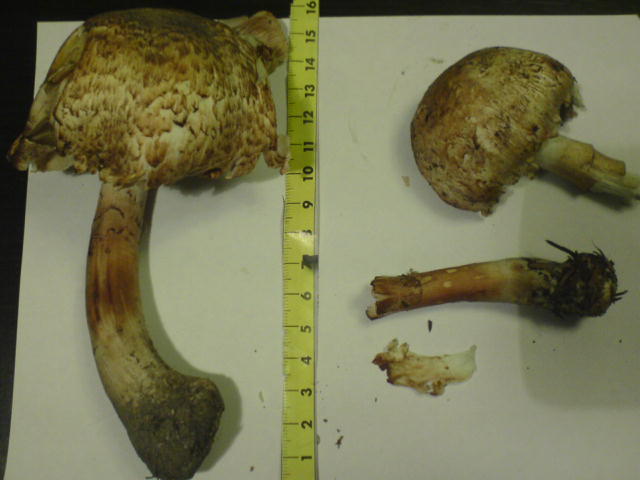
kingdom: Fungi
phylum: Basidiomycota
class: Agaricomycetes
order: Agaricales
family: Agaricaceae
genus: Agaricus
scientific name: Agaricus augustus
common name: prægtig champignon
